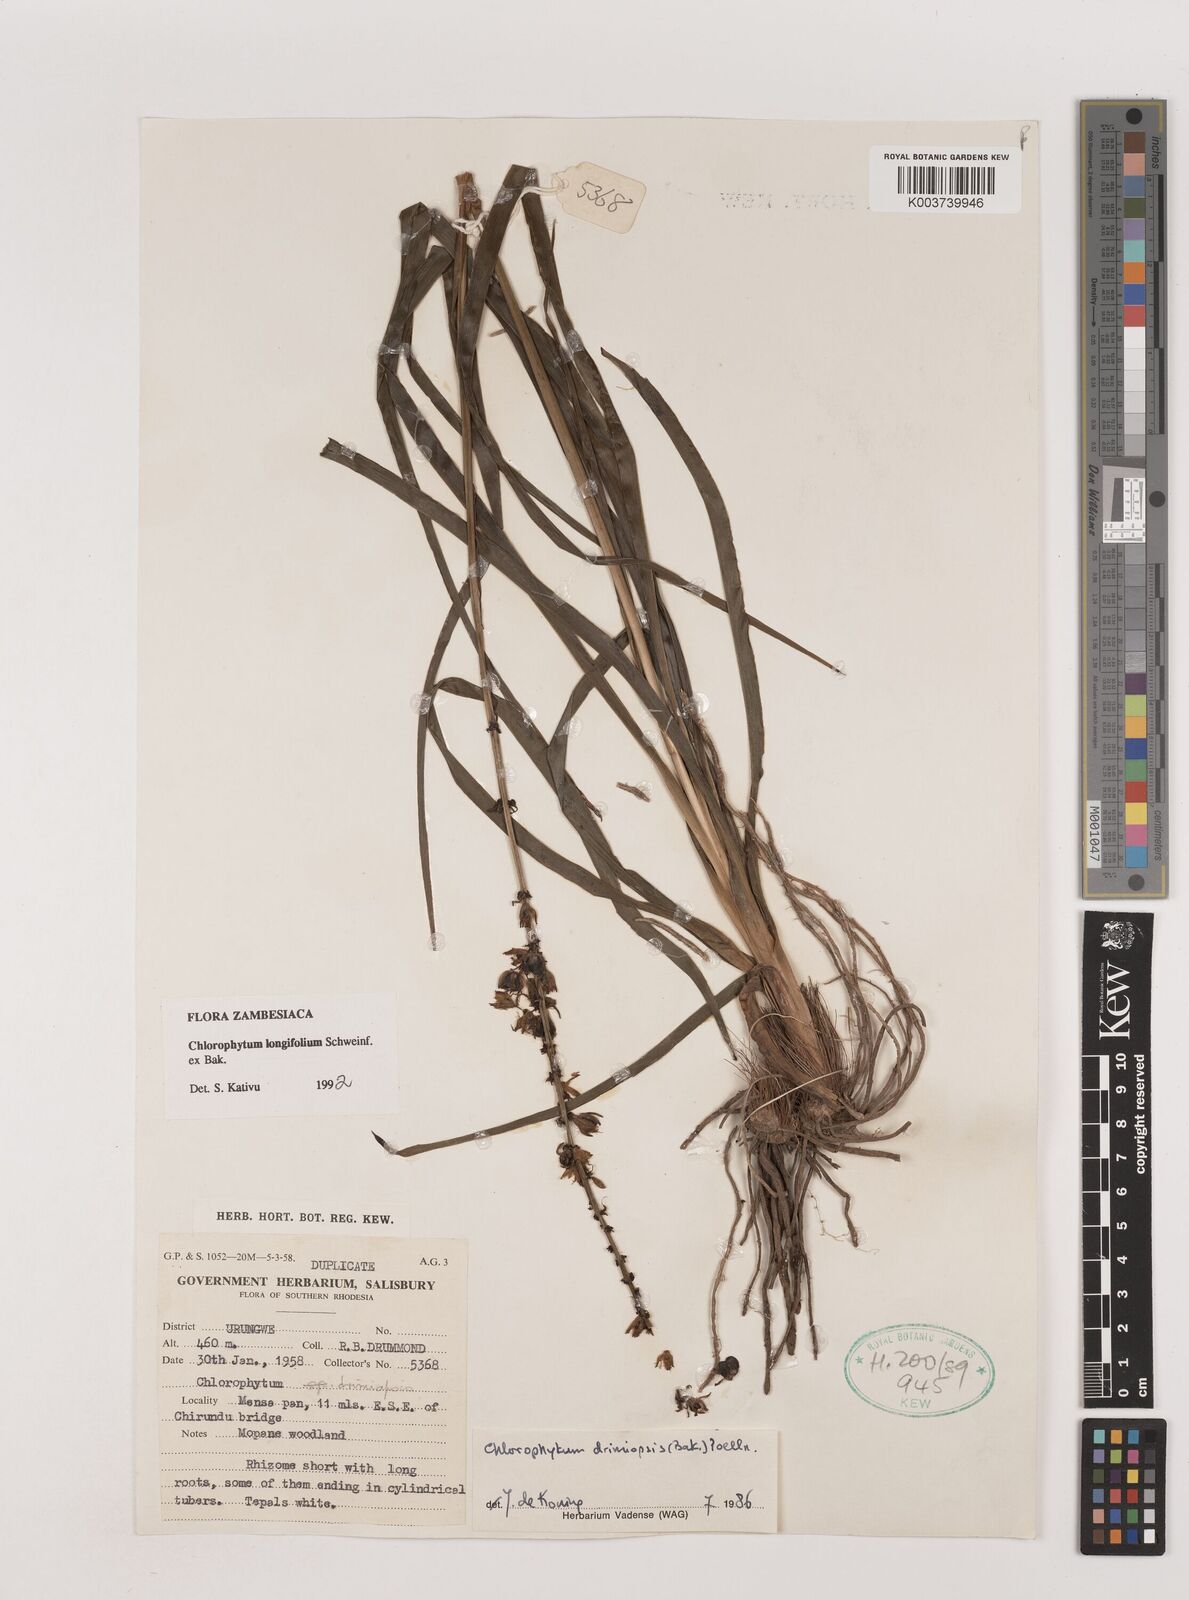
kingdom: Plantae
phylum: Tracheophyta
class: Liliopsida
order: Asparagales
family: Asparagaceae
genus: Chlorophytum
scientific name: Chlorophytum longifolium
